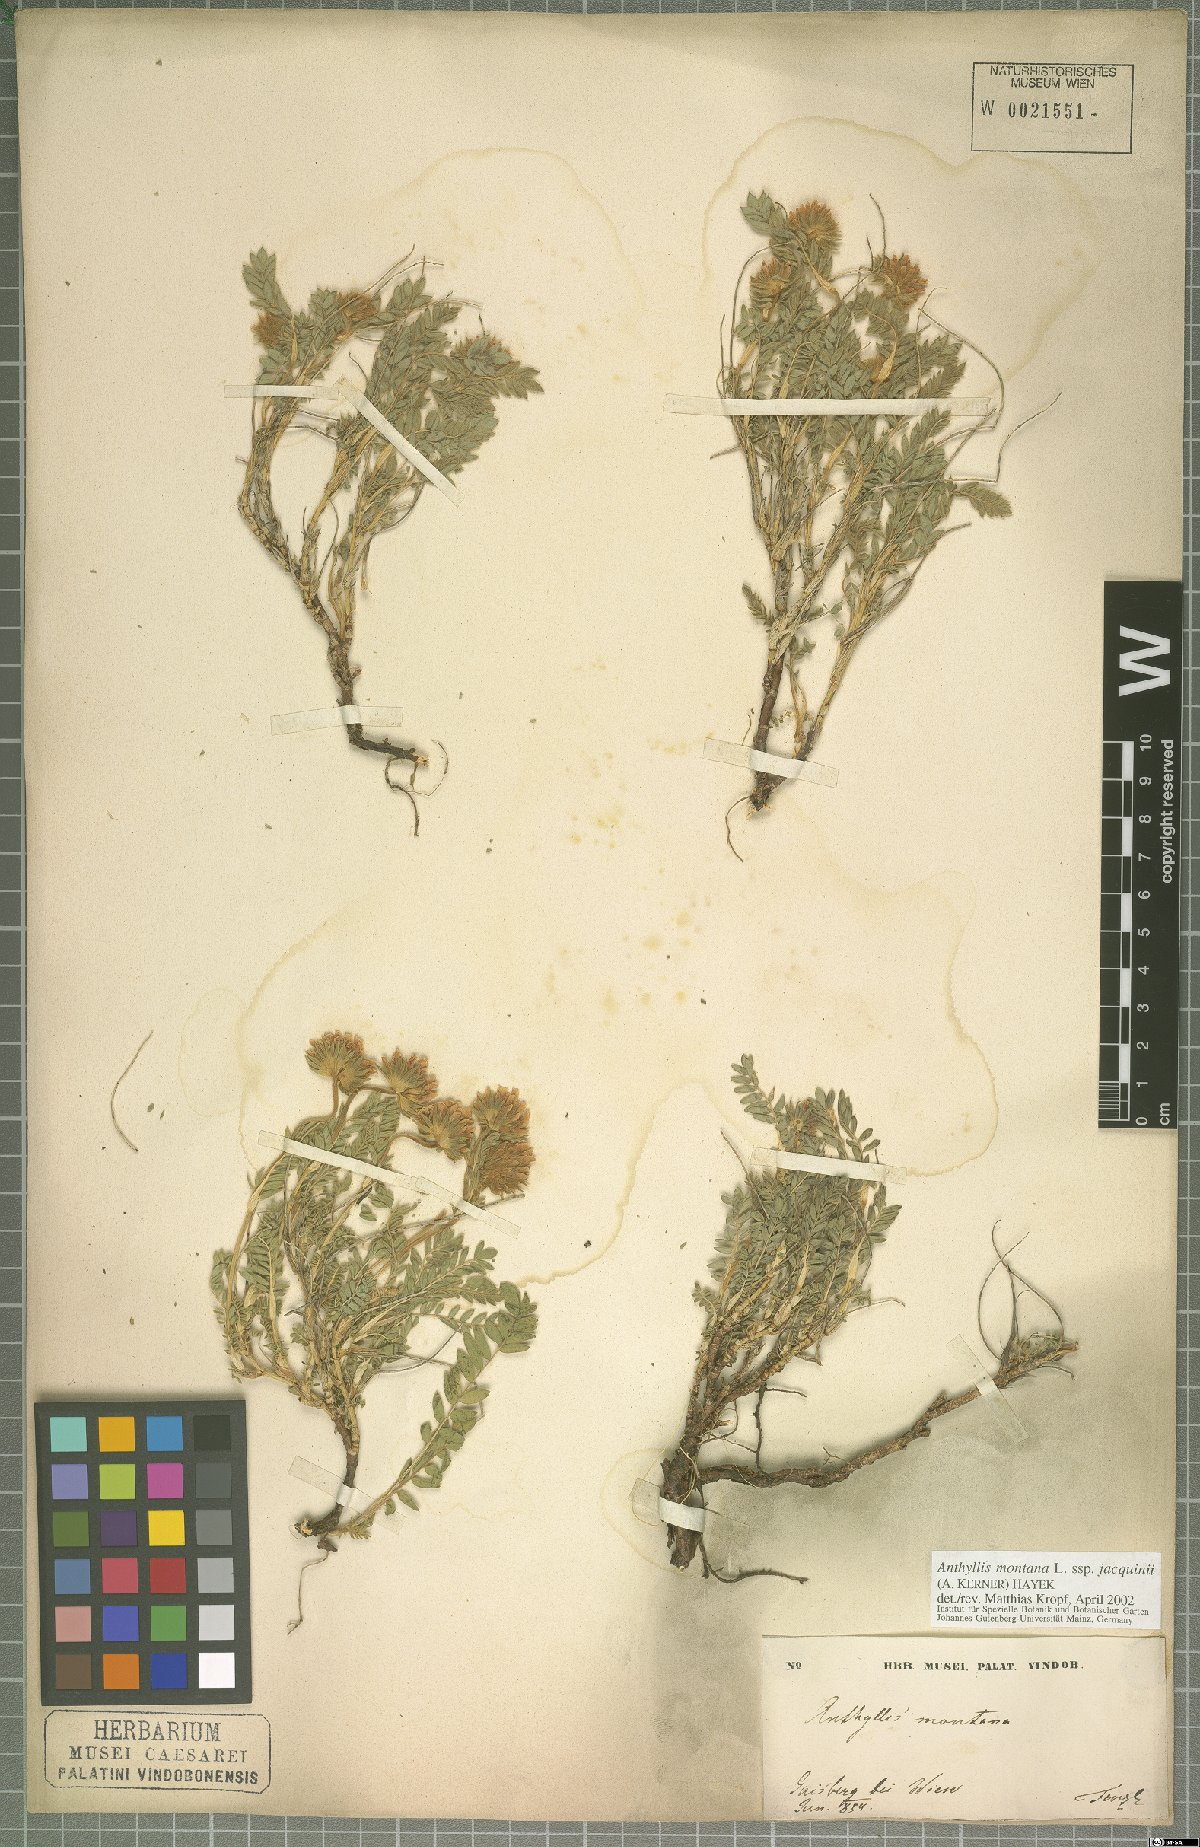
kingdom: Plantae
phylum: Tracheophyta
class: Magnoliopsida
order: Fabales
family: Fabaceae
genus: Anthyllis
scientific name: Anthyllis montana
